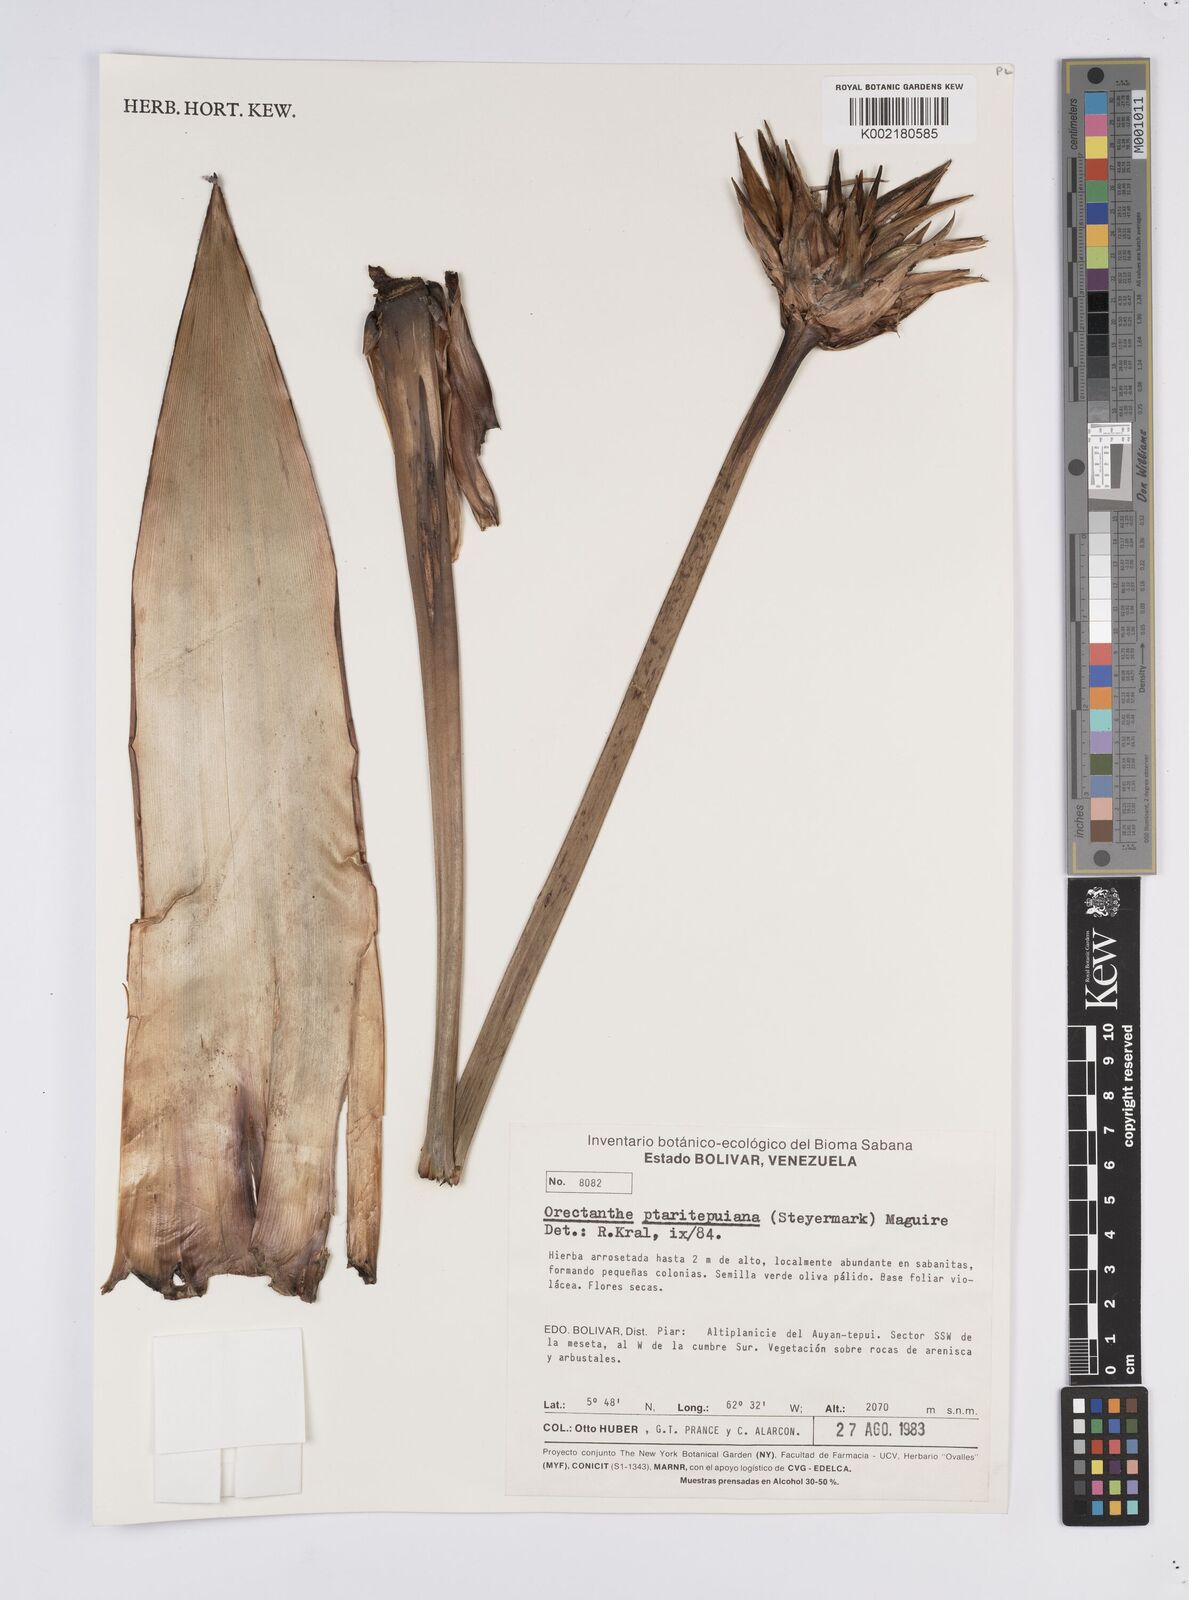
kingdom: Plantae
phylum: Tracheophyta
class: Liliopsida
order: Poales
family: Xyridaceae
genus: Orectanthe
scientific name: Orectanthe ptaritepuiana
